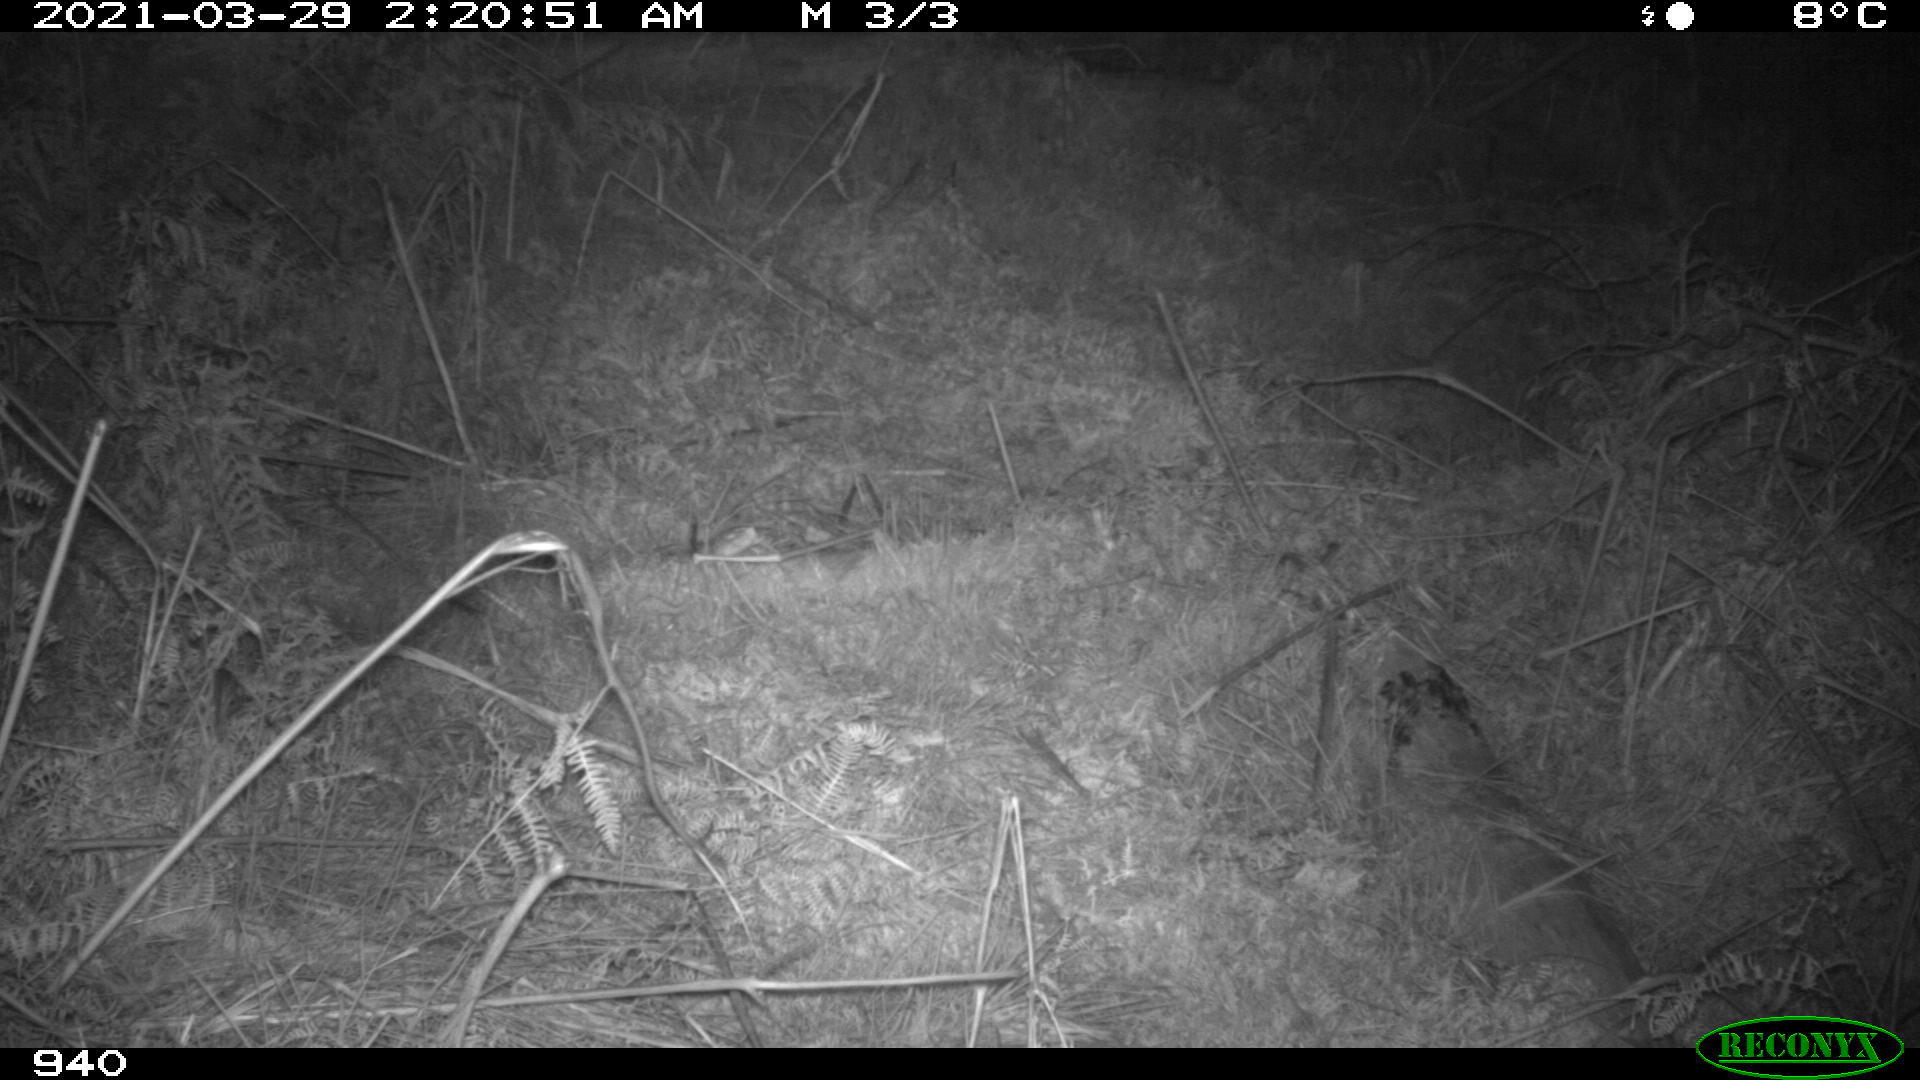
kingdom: Animalia
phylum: Chordata
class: Mammalia
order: Artiodactyla
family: Cervidae
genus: Capreolus
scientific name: Capreolus capreolus
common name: Western roe deer
